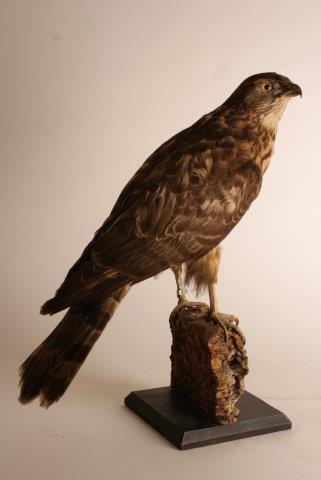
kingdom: Animalia
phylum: Chordata
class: Aves
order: Accipitriformes
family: Accipitridae
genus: Buteo
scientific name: Buteo lagopus
